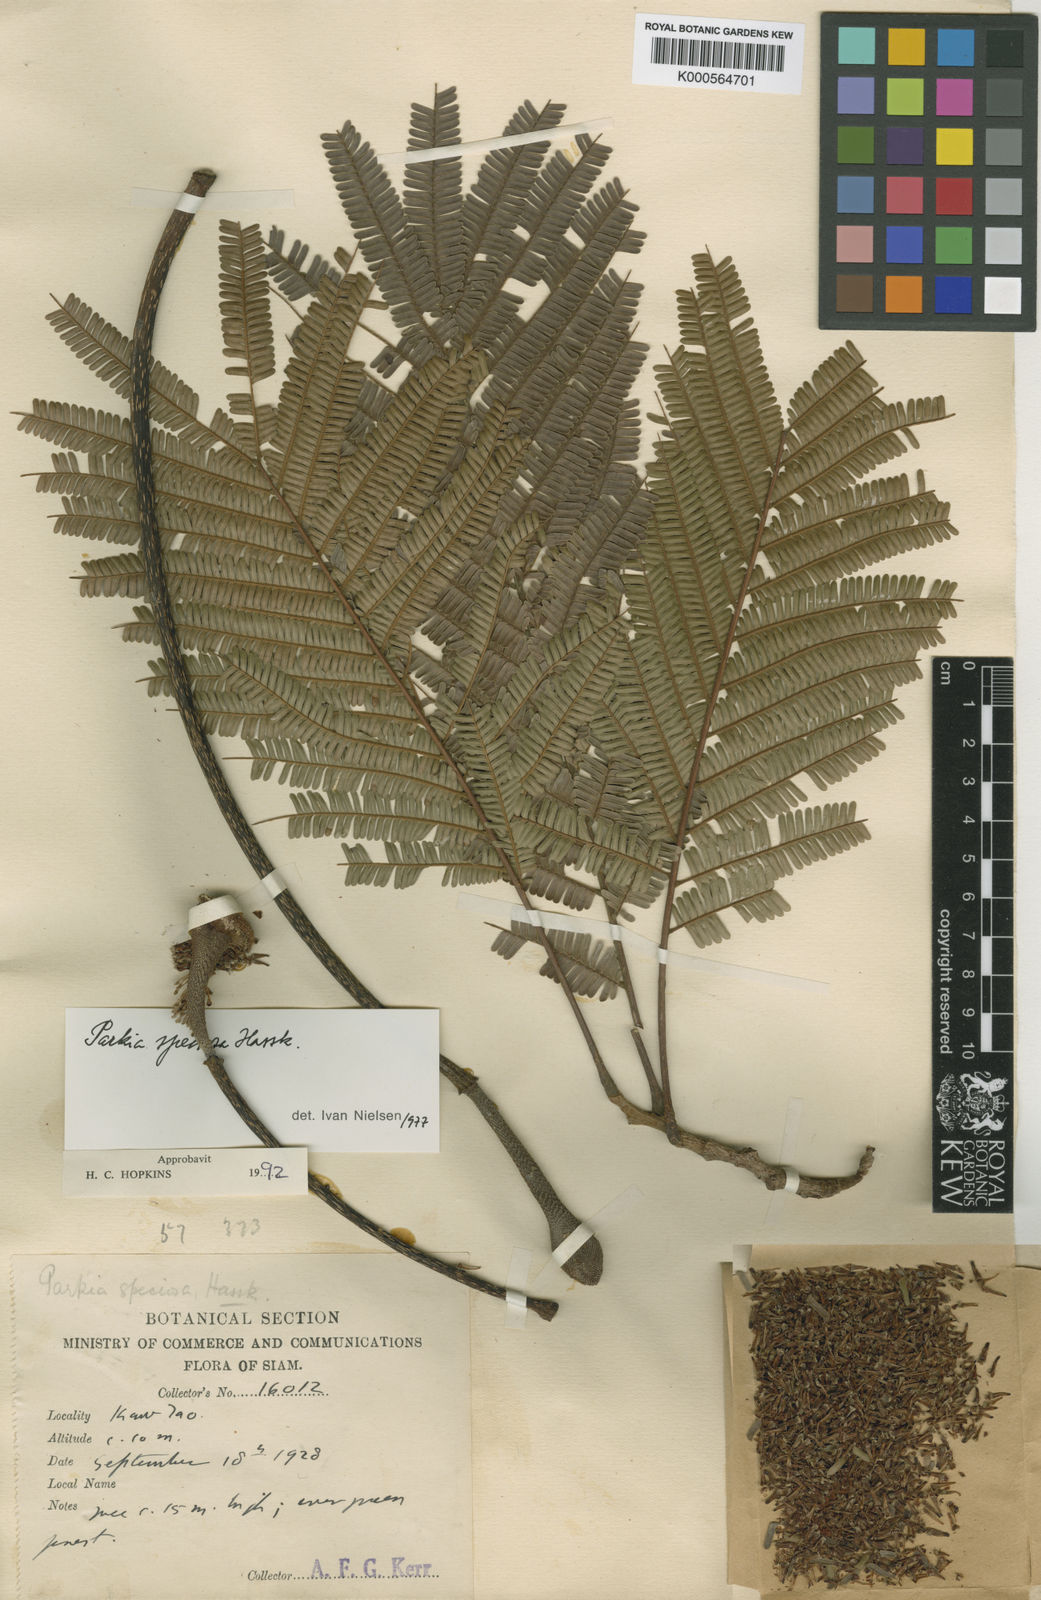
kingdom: Plantae
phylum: Tracheophyta
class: Magnoliopsida
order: Fabales
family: Fabaceae
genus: Parkia
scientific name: Parkia speciosa
